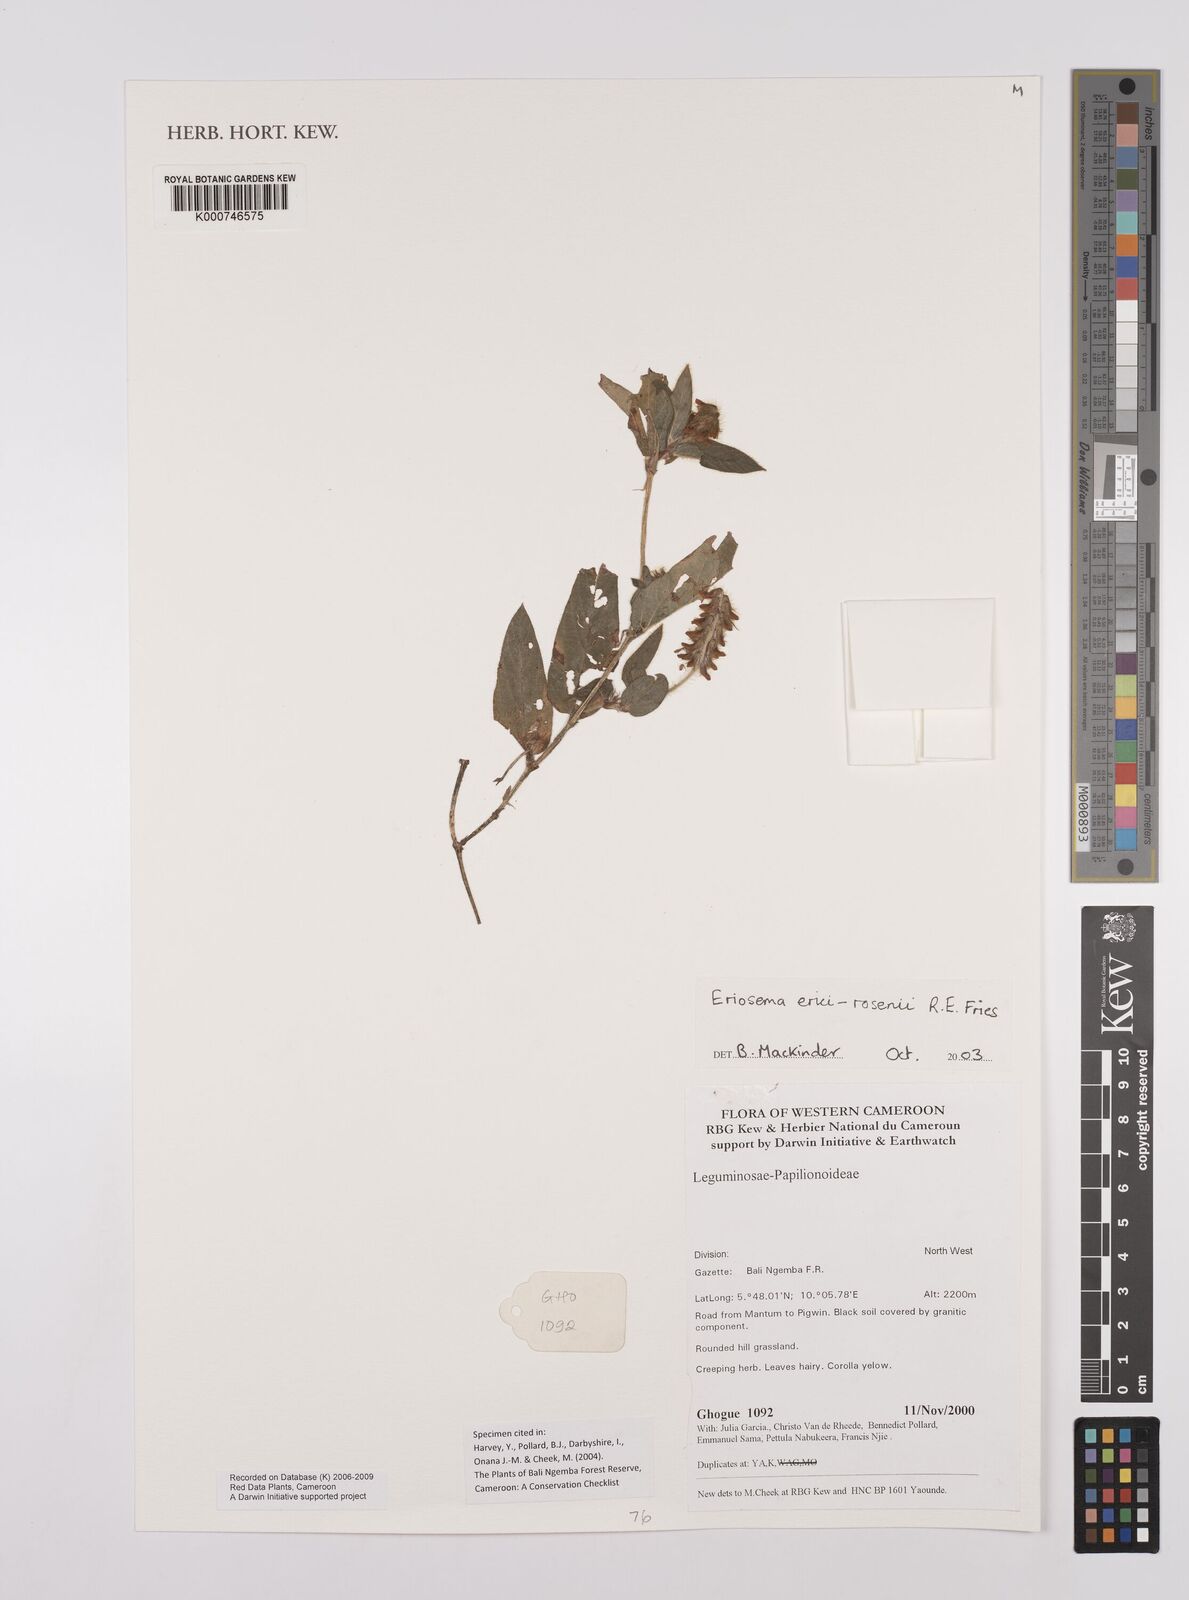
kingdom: Plantae
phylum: Tracheophyta
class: Magnoliopsida
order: Fabales
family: Fabaceae
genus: Eriosema
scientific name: Eriosema erici-rosenii
